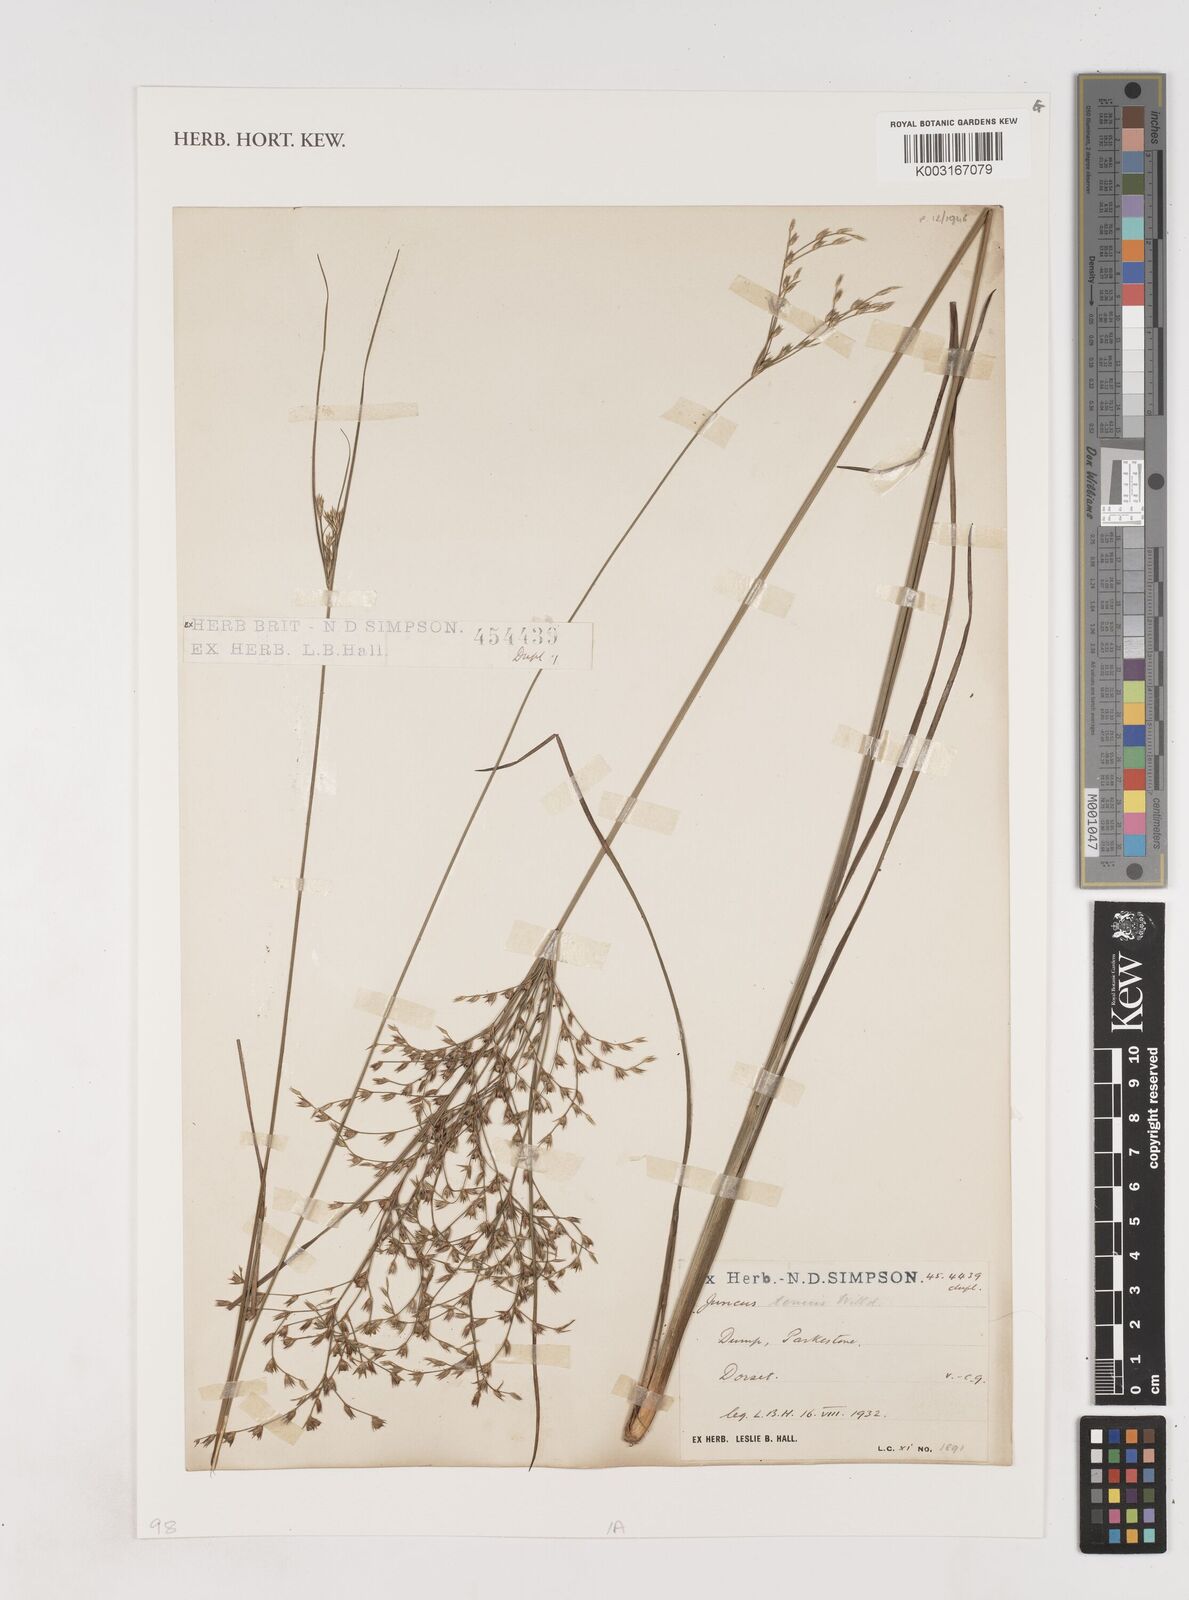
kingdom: Plantae
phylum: Tracheophyta
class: Liliopsida
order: Poales
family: Juncaceae
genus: Juncus
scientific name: Juncus tenuis
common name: Slender rush
